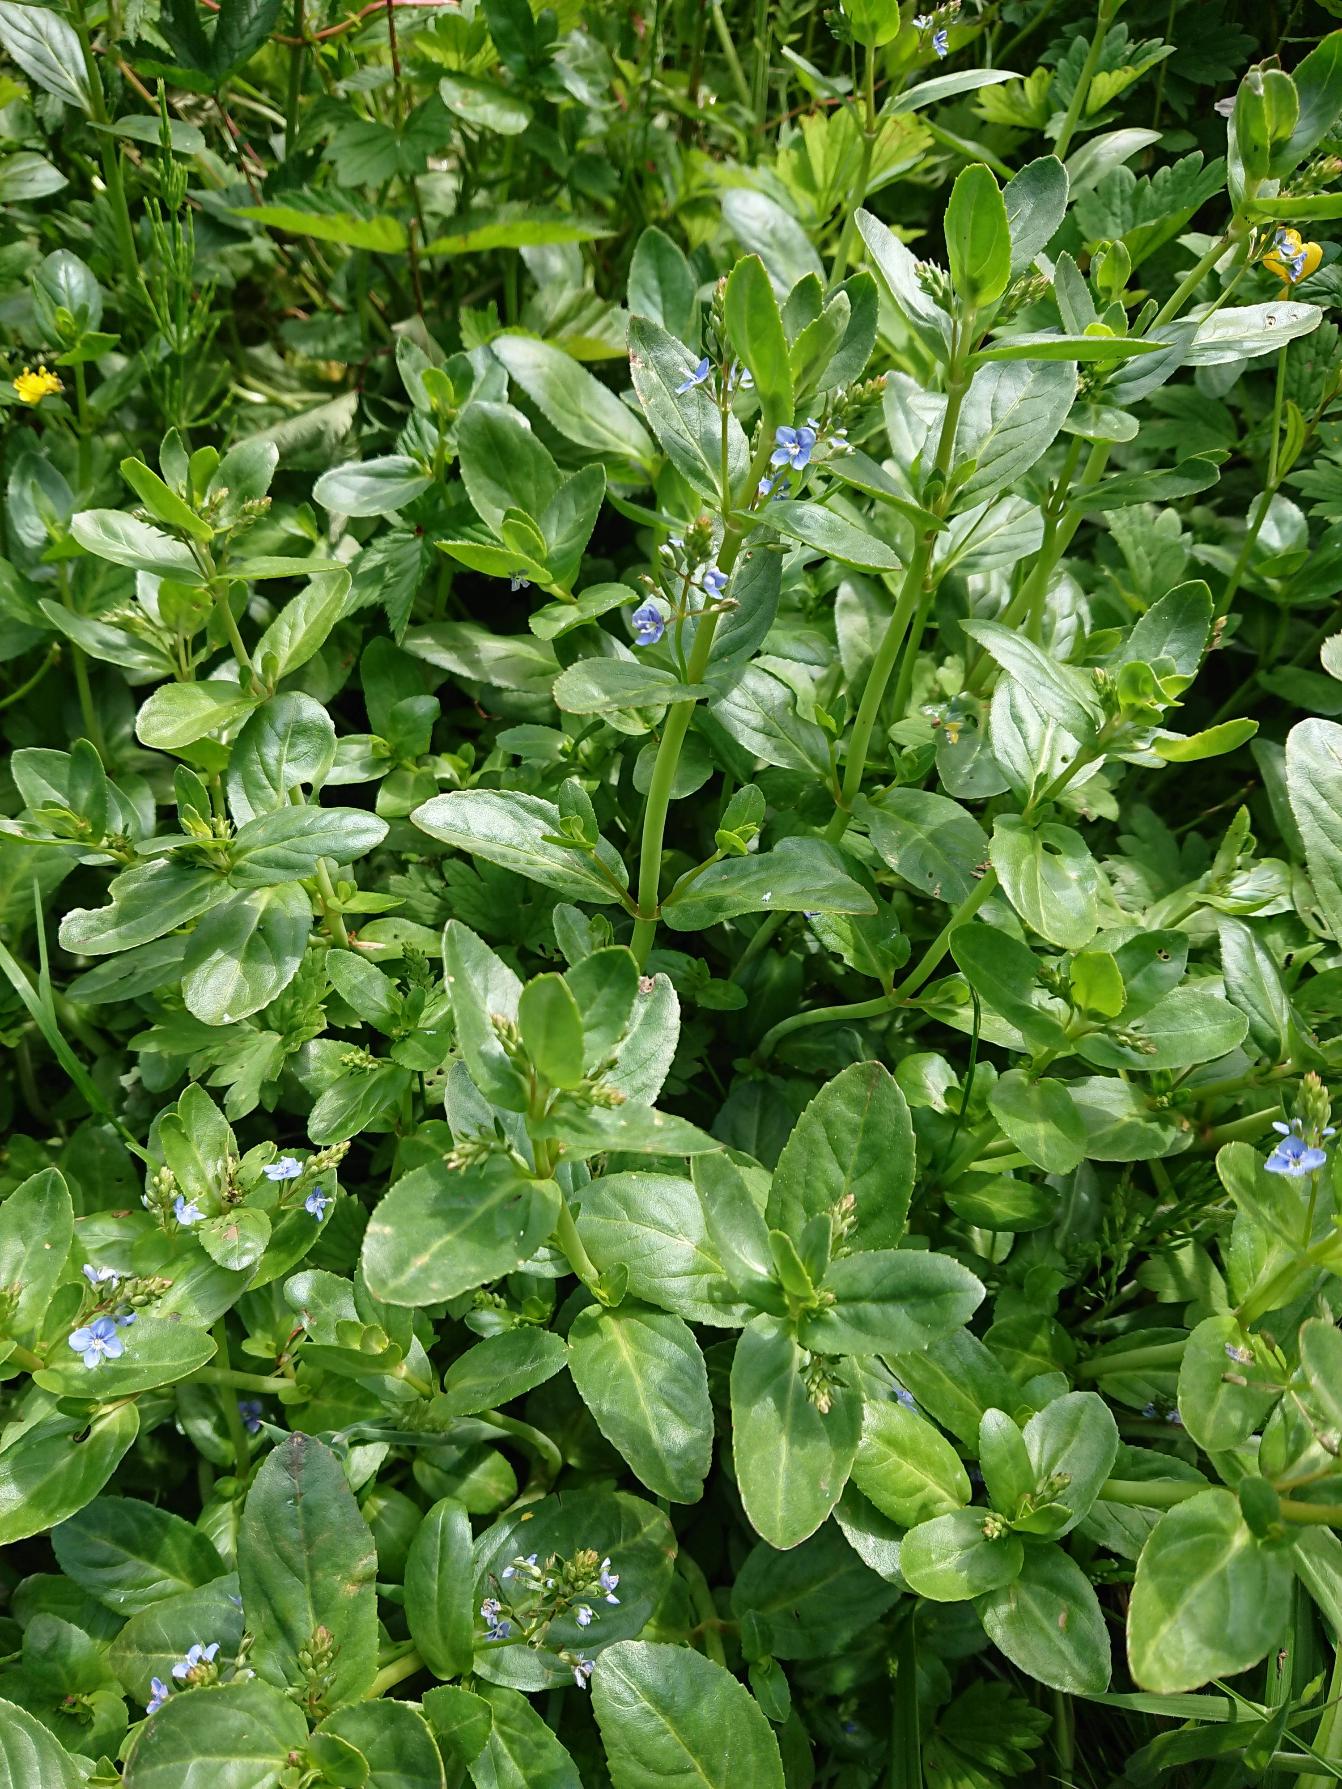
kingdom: Plantae
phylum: Tracheophyta
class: Magnoliopsida
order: Lamiales
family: Plantaginaceae
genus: Veronica
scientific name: Veronica beccabunga
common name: Tykbladet ærenpris
